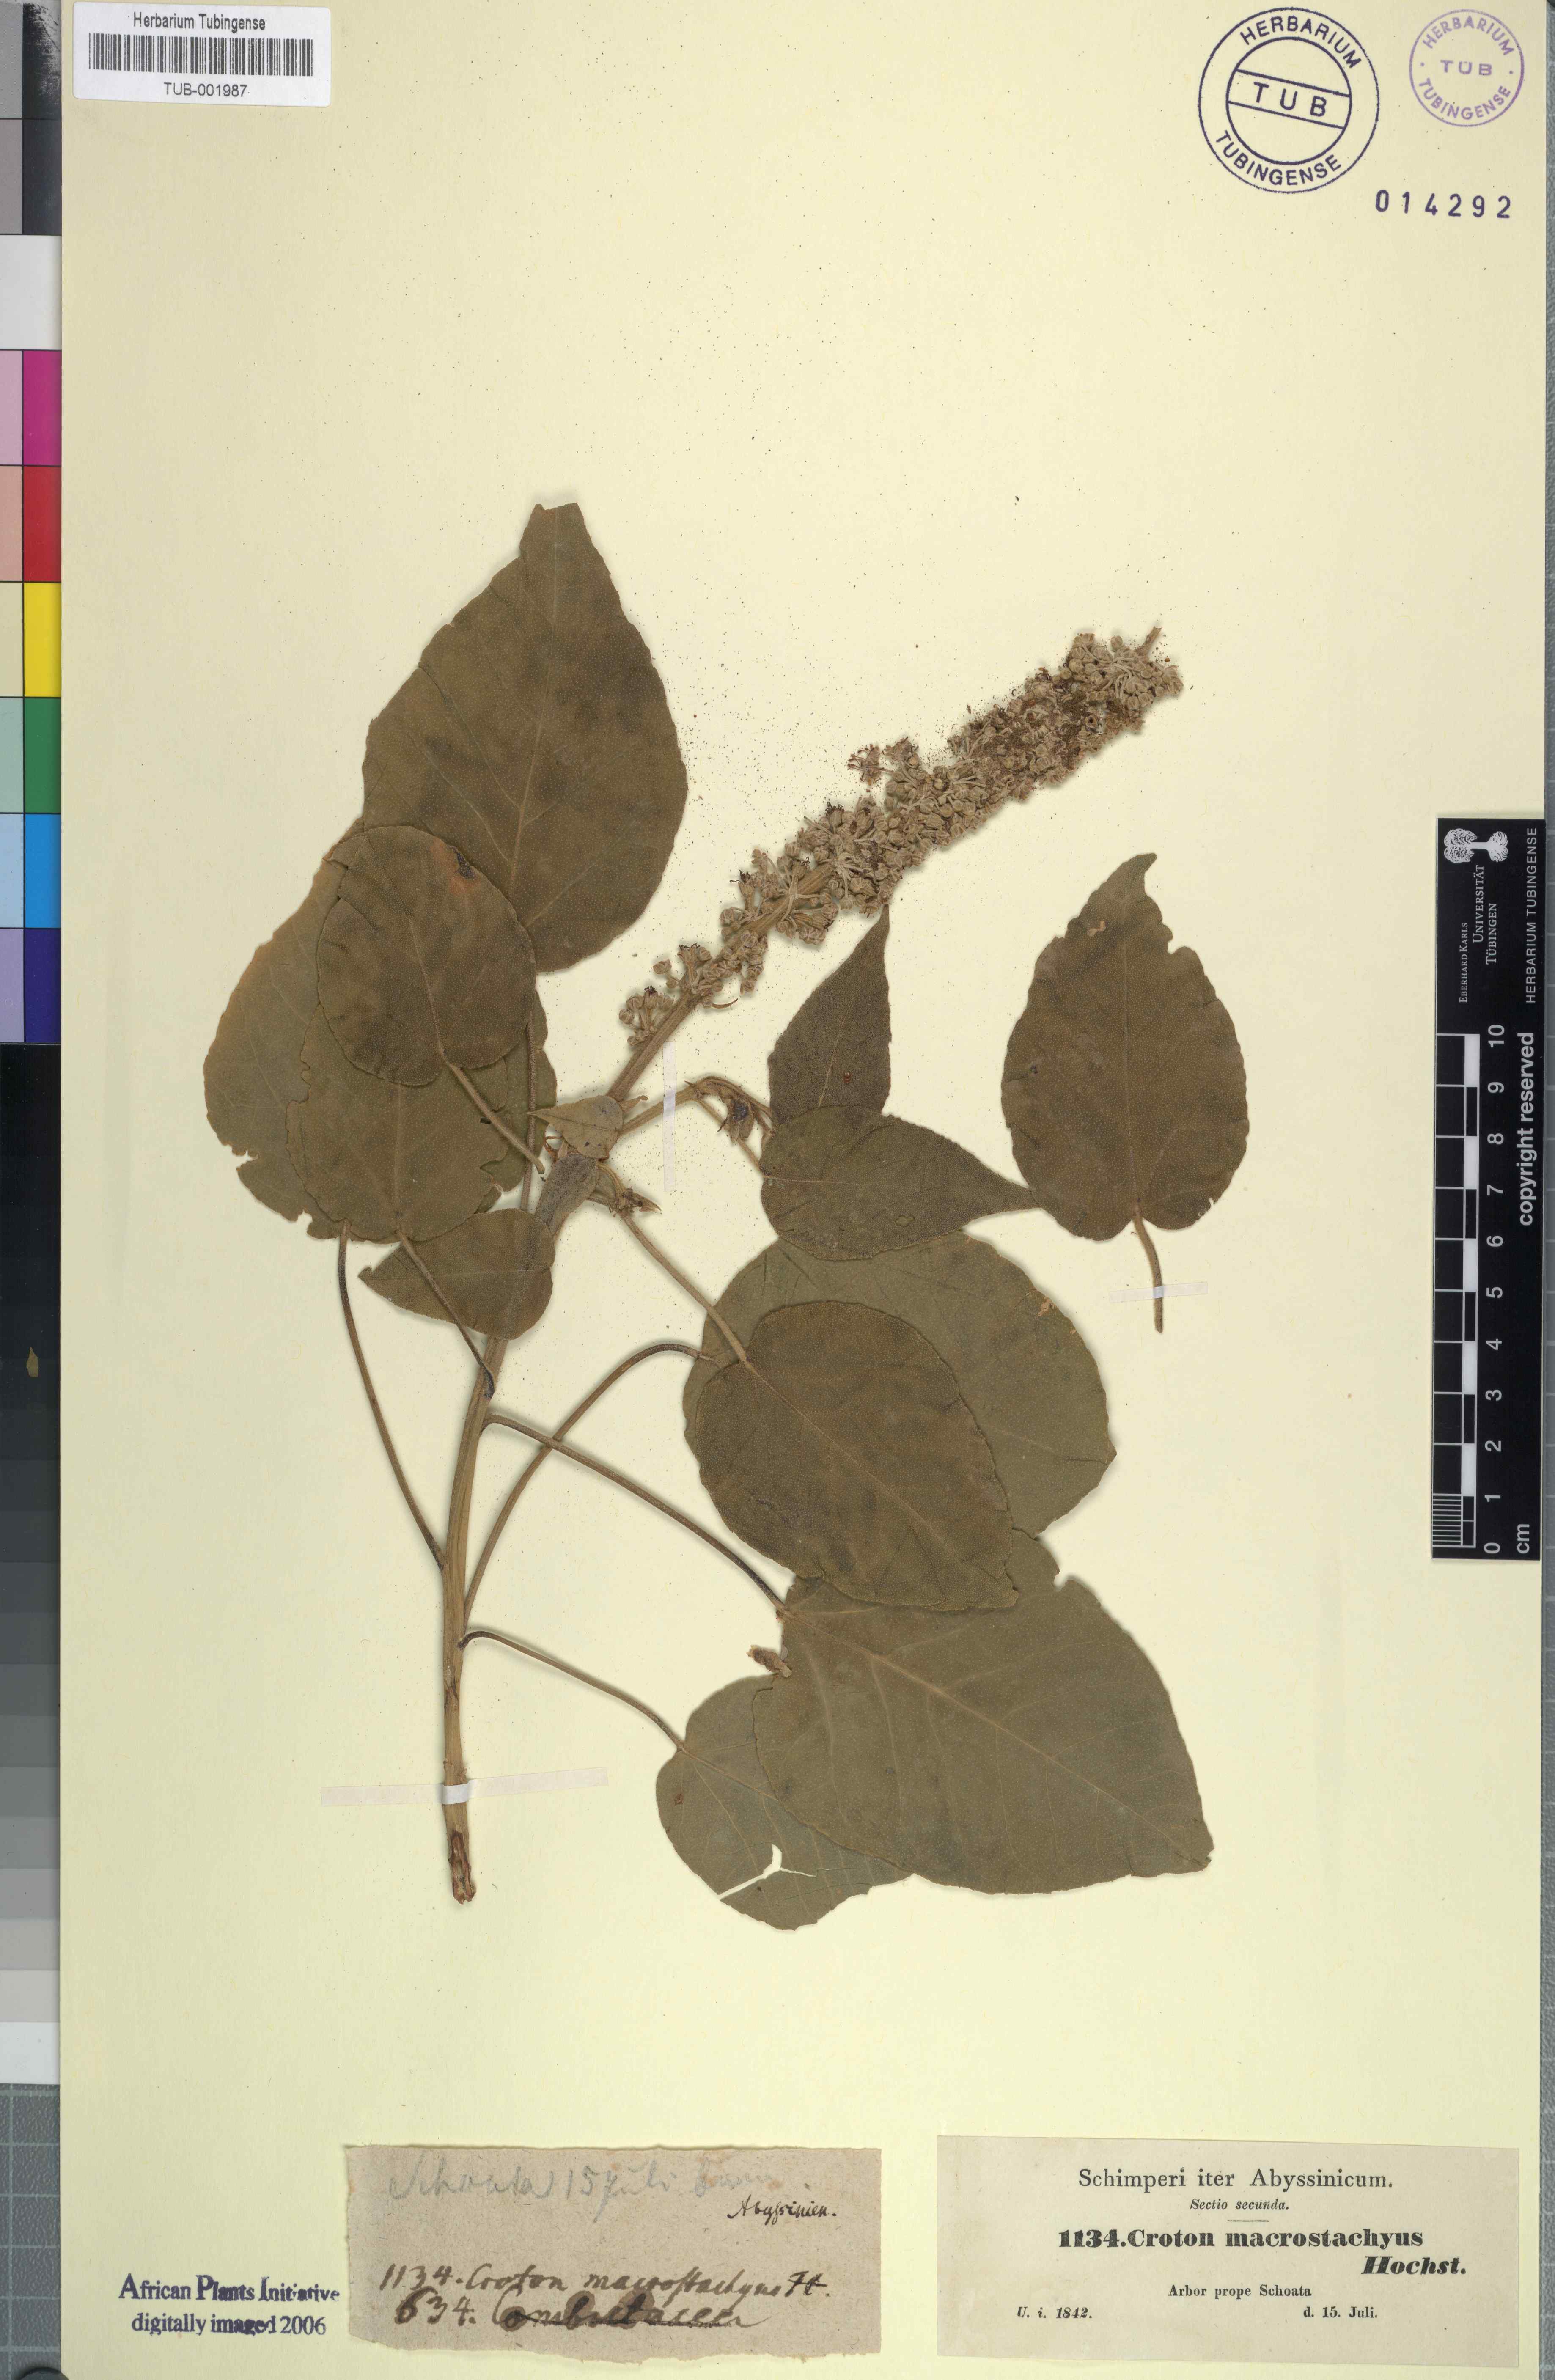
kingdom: Plantae
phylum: Tracheophyta
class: Magnoliopsida
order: Malpighiales
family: Euphorbiaceae
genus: Croton
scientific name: Croton macrostachys
